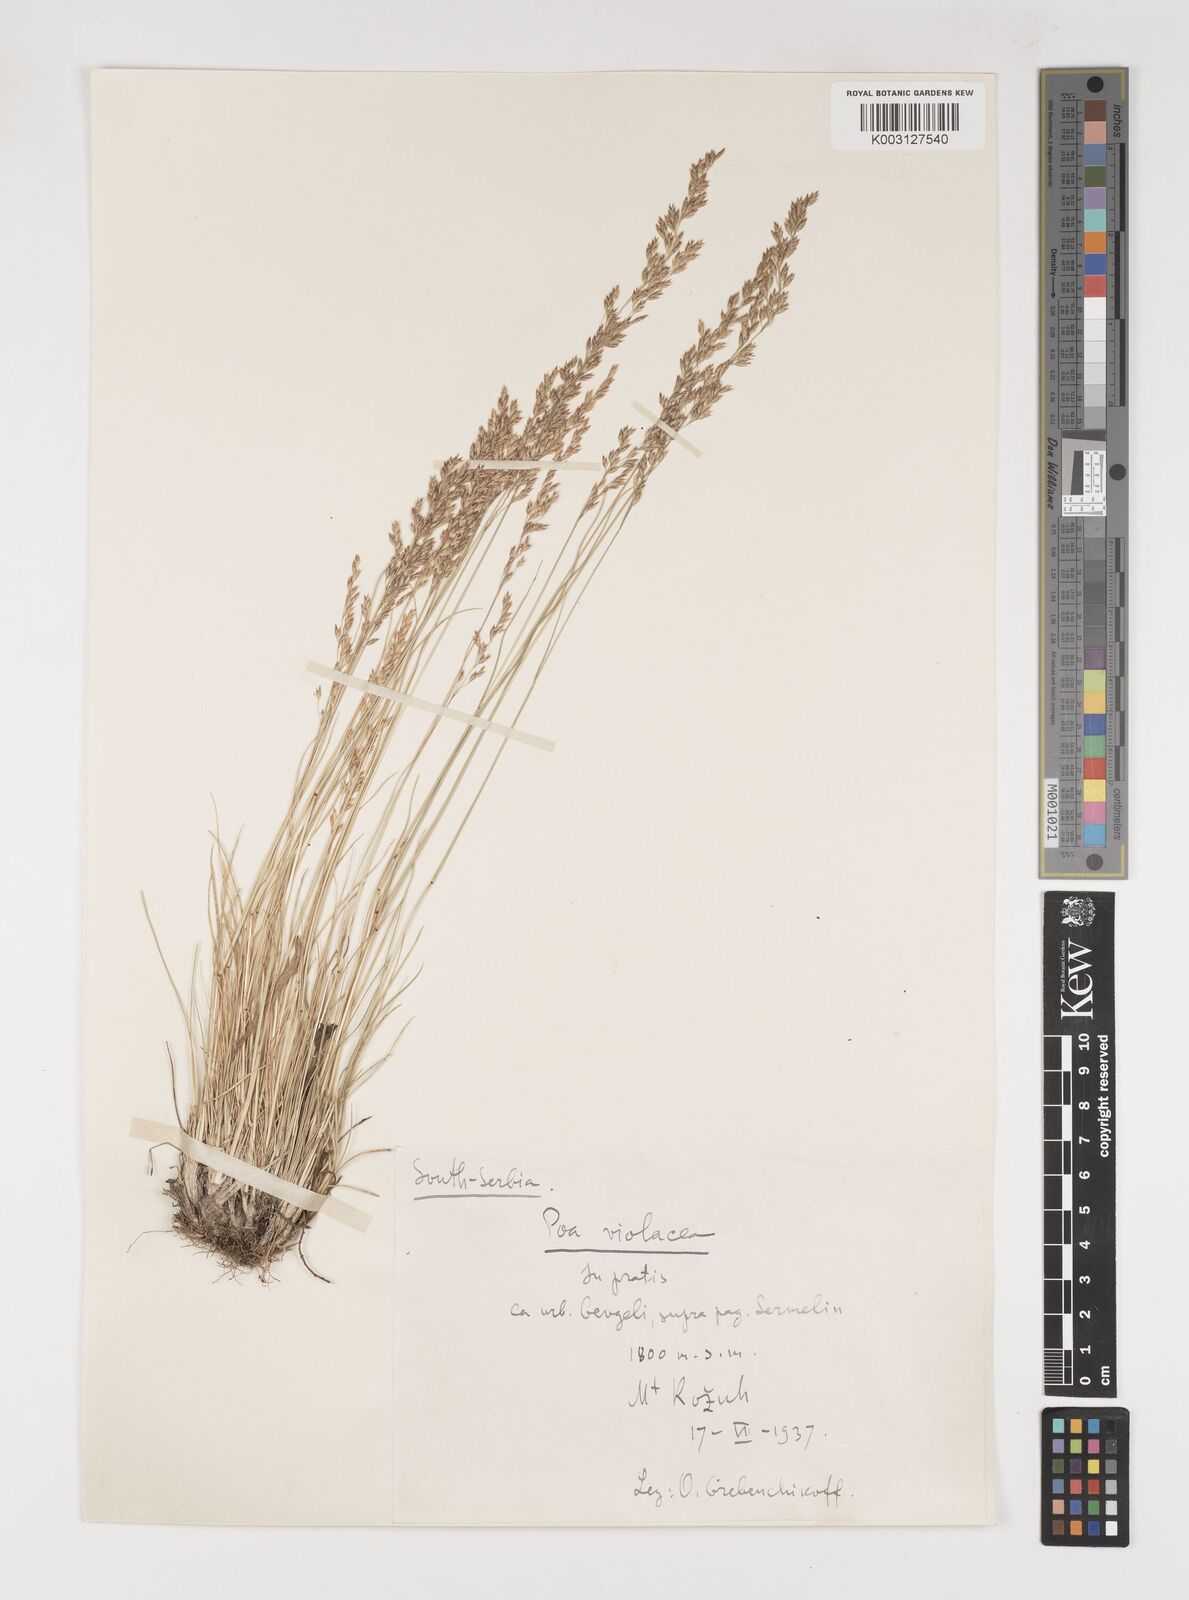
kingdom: Plantae
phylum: Tracheophyta
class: Liliopsida
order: Poales
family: Poaceae
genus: Bellardiochloa
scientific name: Bellardiochloa variegata
